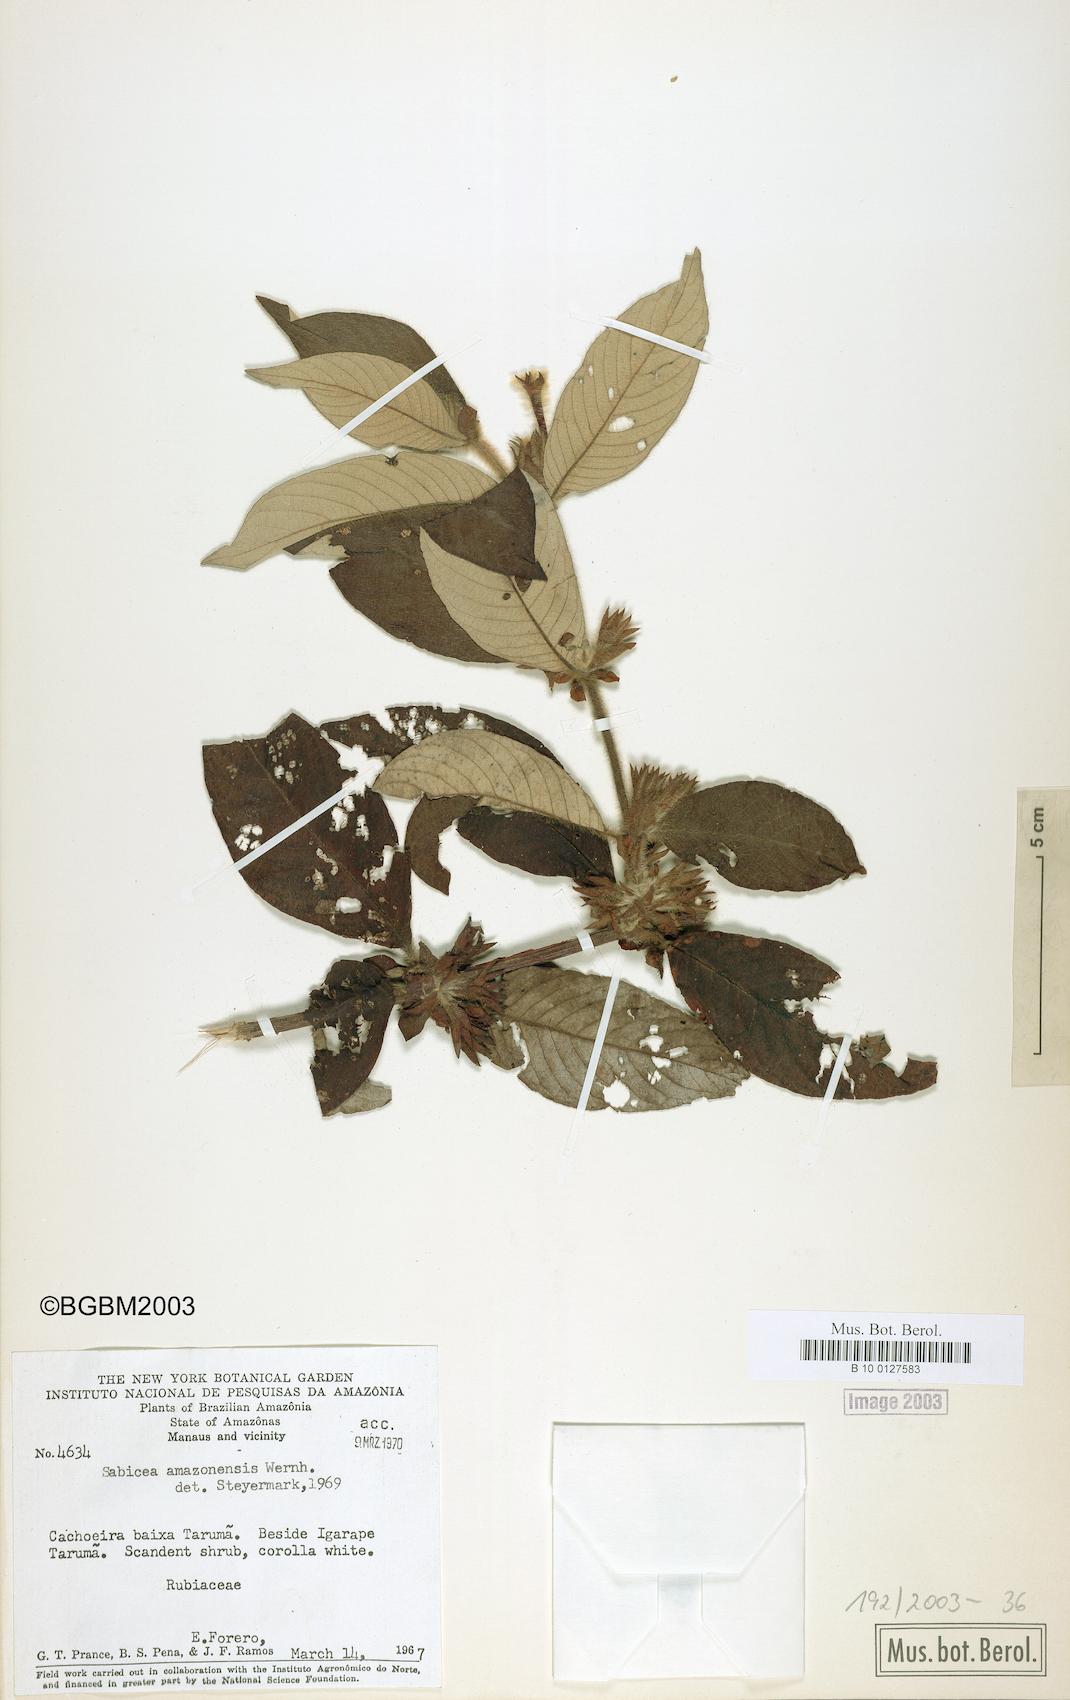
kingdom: Plantae
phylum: Tracheophyta
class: Magnoliopsida
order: Gentianales
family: Rubiaceae
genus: Sabicea
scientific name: Sabicea amazonensis
